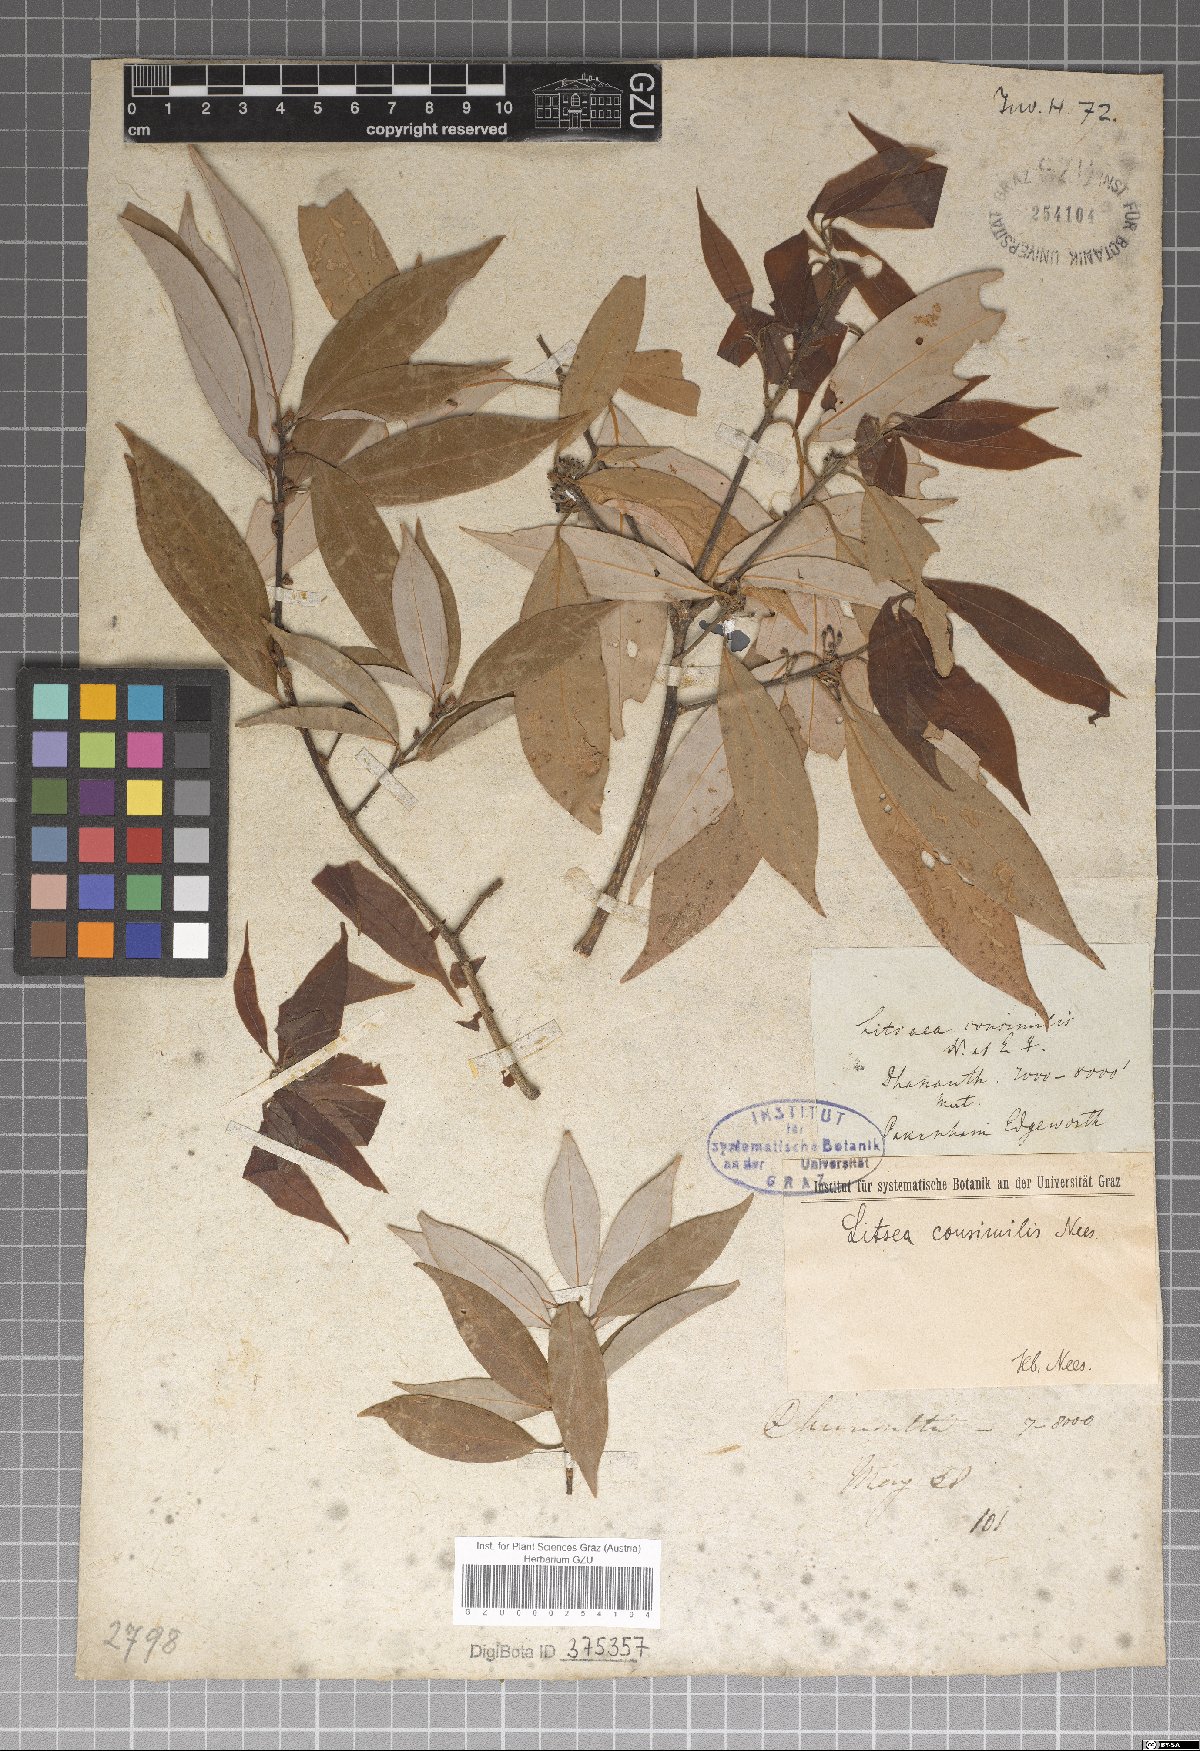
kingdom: Plantae
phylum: Tracheophyta
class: Magnoliopsida
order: Laurales
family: Lauraceae
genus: Neolitsea
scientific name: Neolitsea pallens
